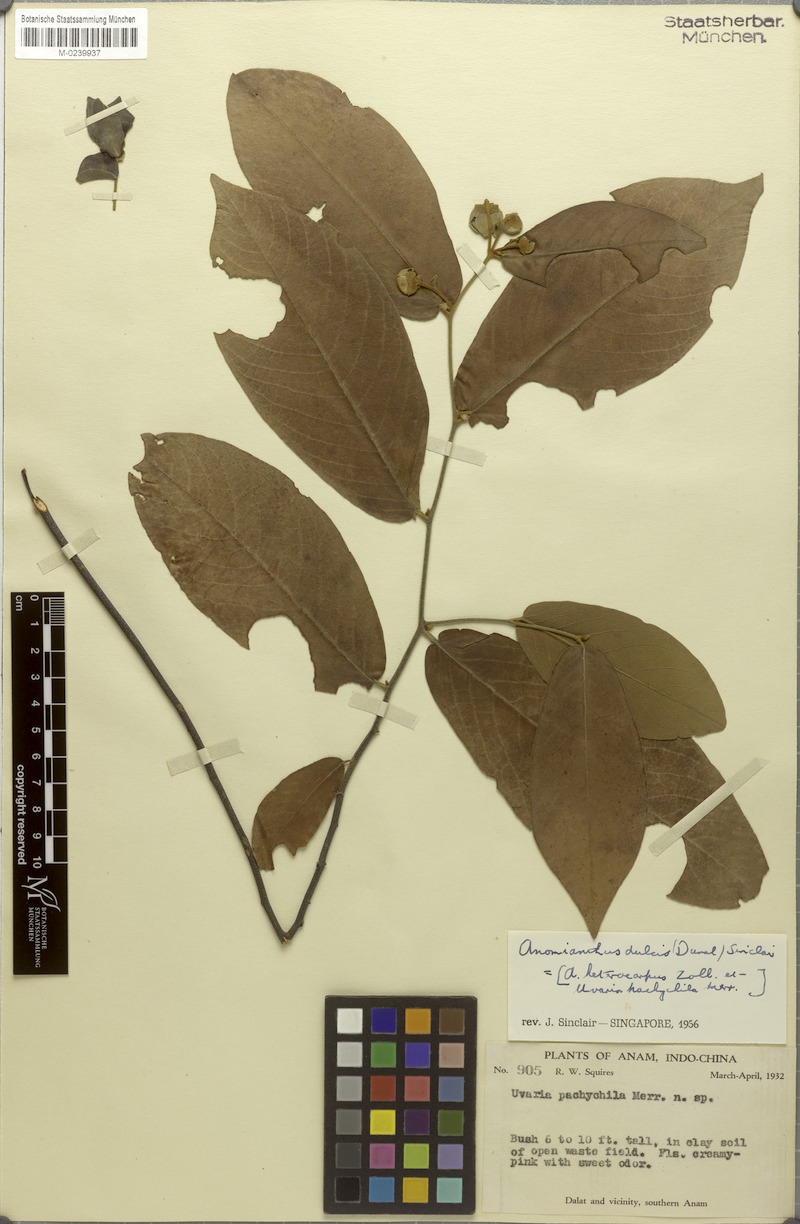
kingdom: Plantae
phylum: Tracheophyta
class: Magnoliopsida
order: Magnoliales
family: Annonaceae
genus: Anomianthus
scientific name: Anomianthus dulcis
